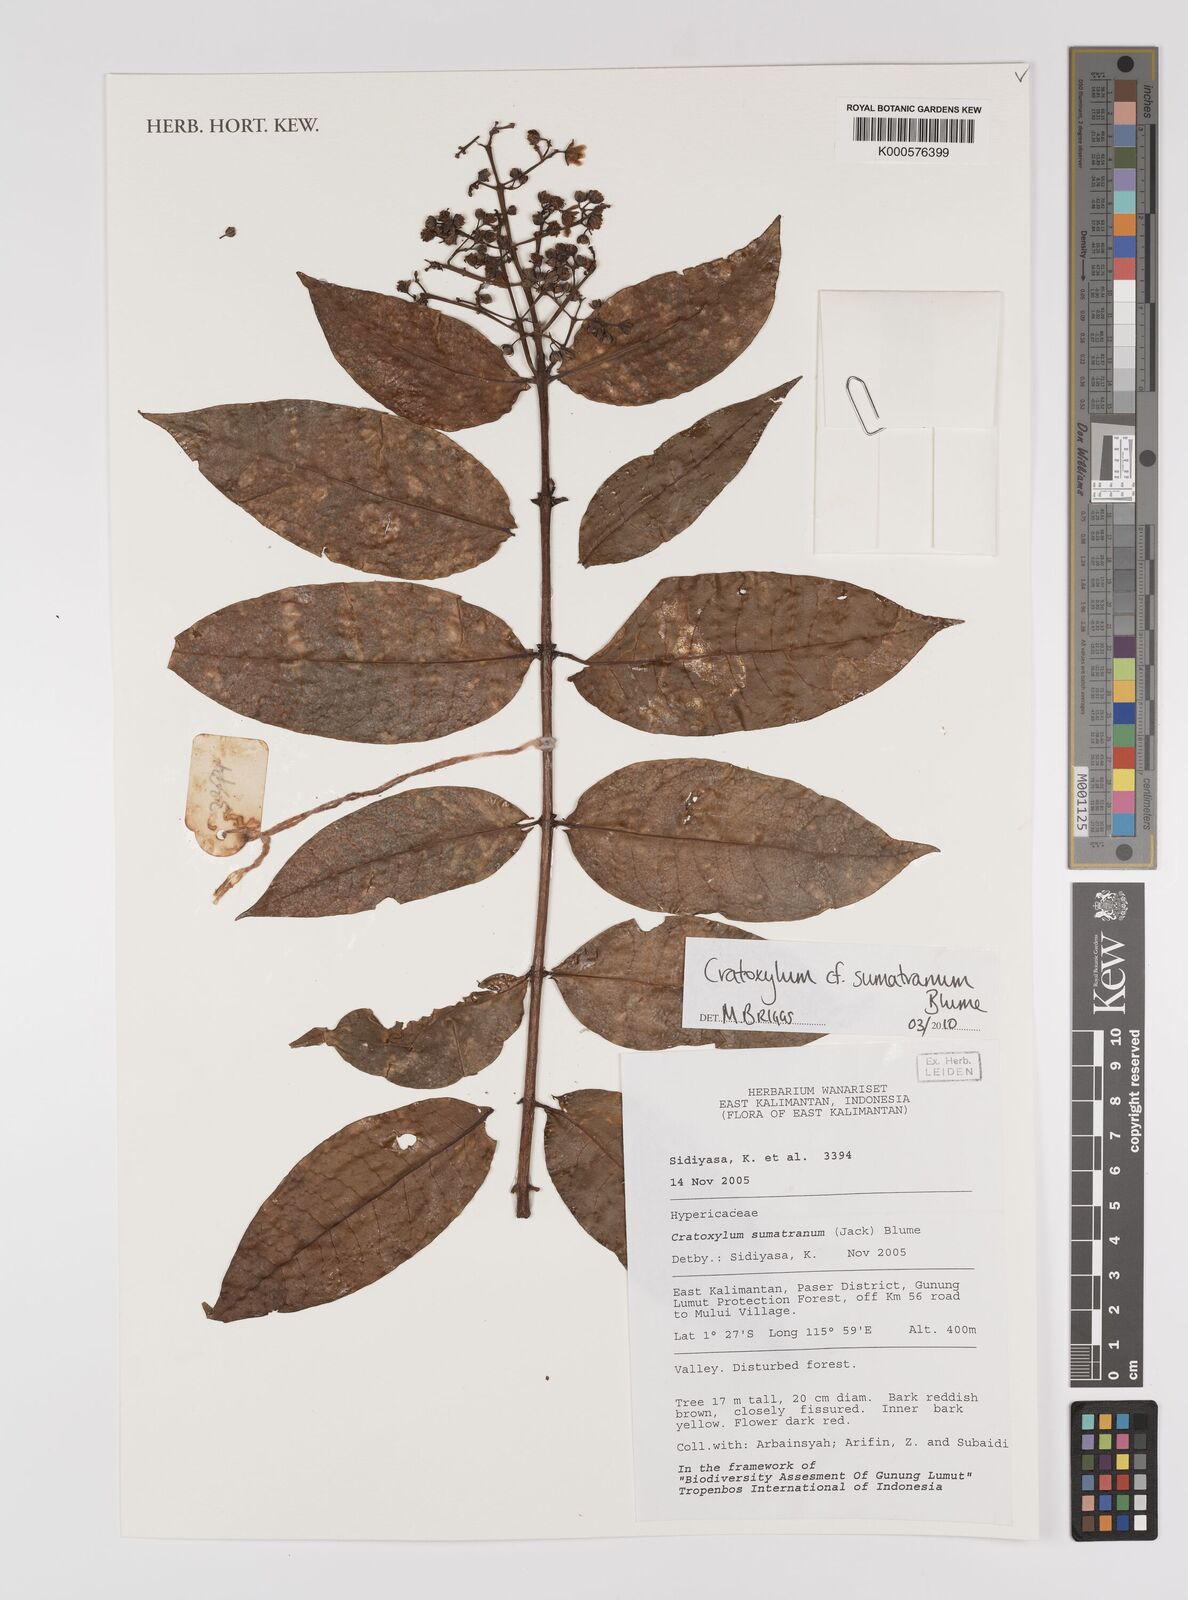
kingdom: Plantae
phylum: Tracheophyta
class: Magnoliopsida
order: Malpighiales
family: Hypericaceae
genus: Cratoxylum
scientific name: Cratoxylum sumatranum
